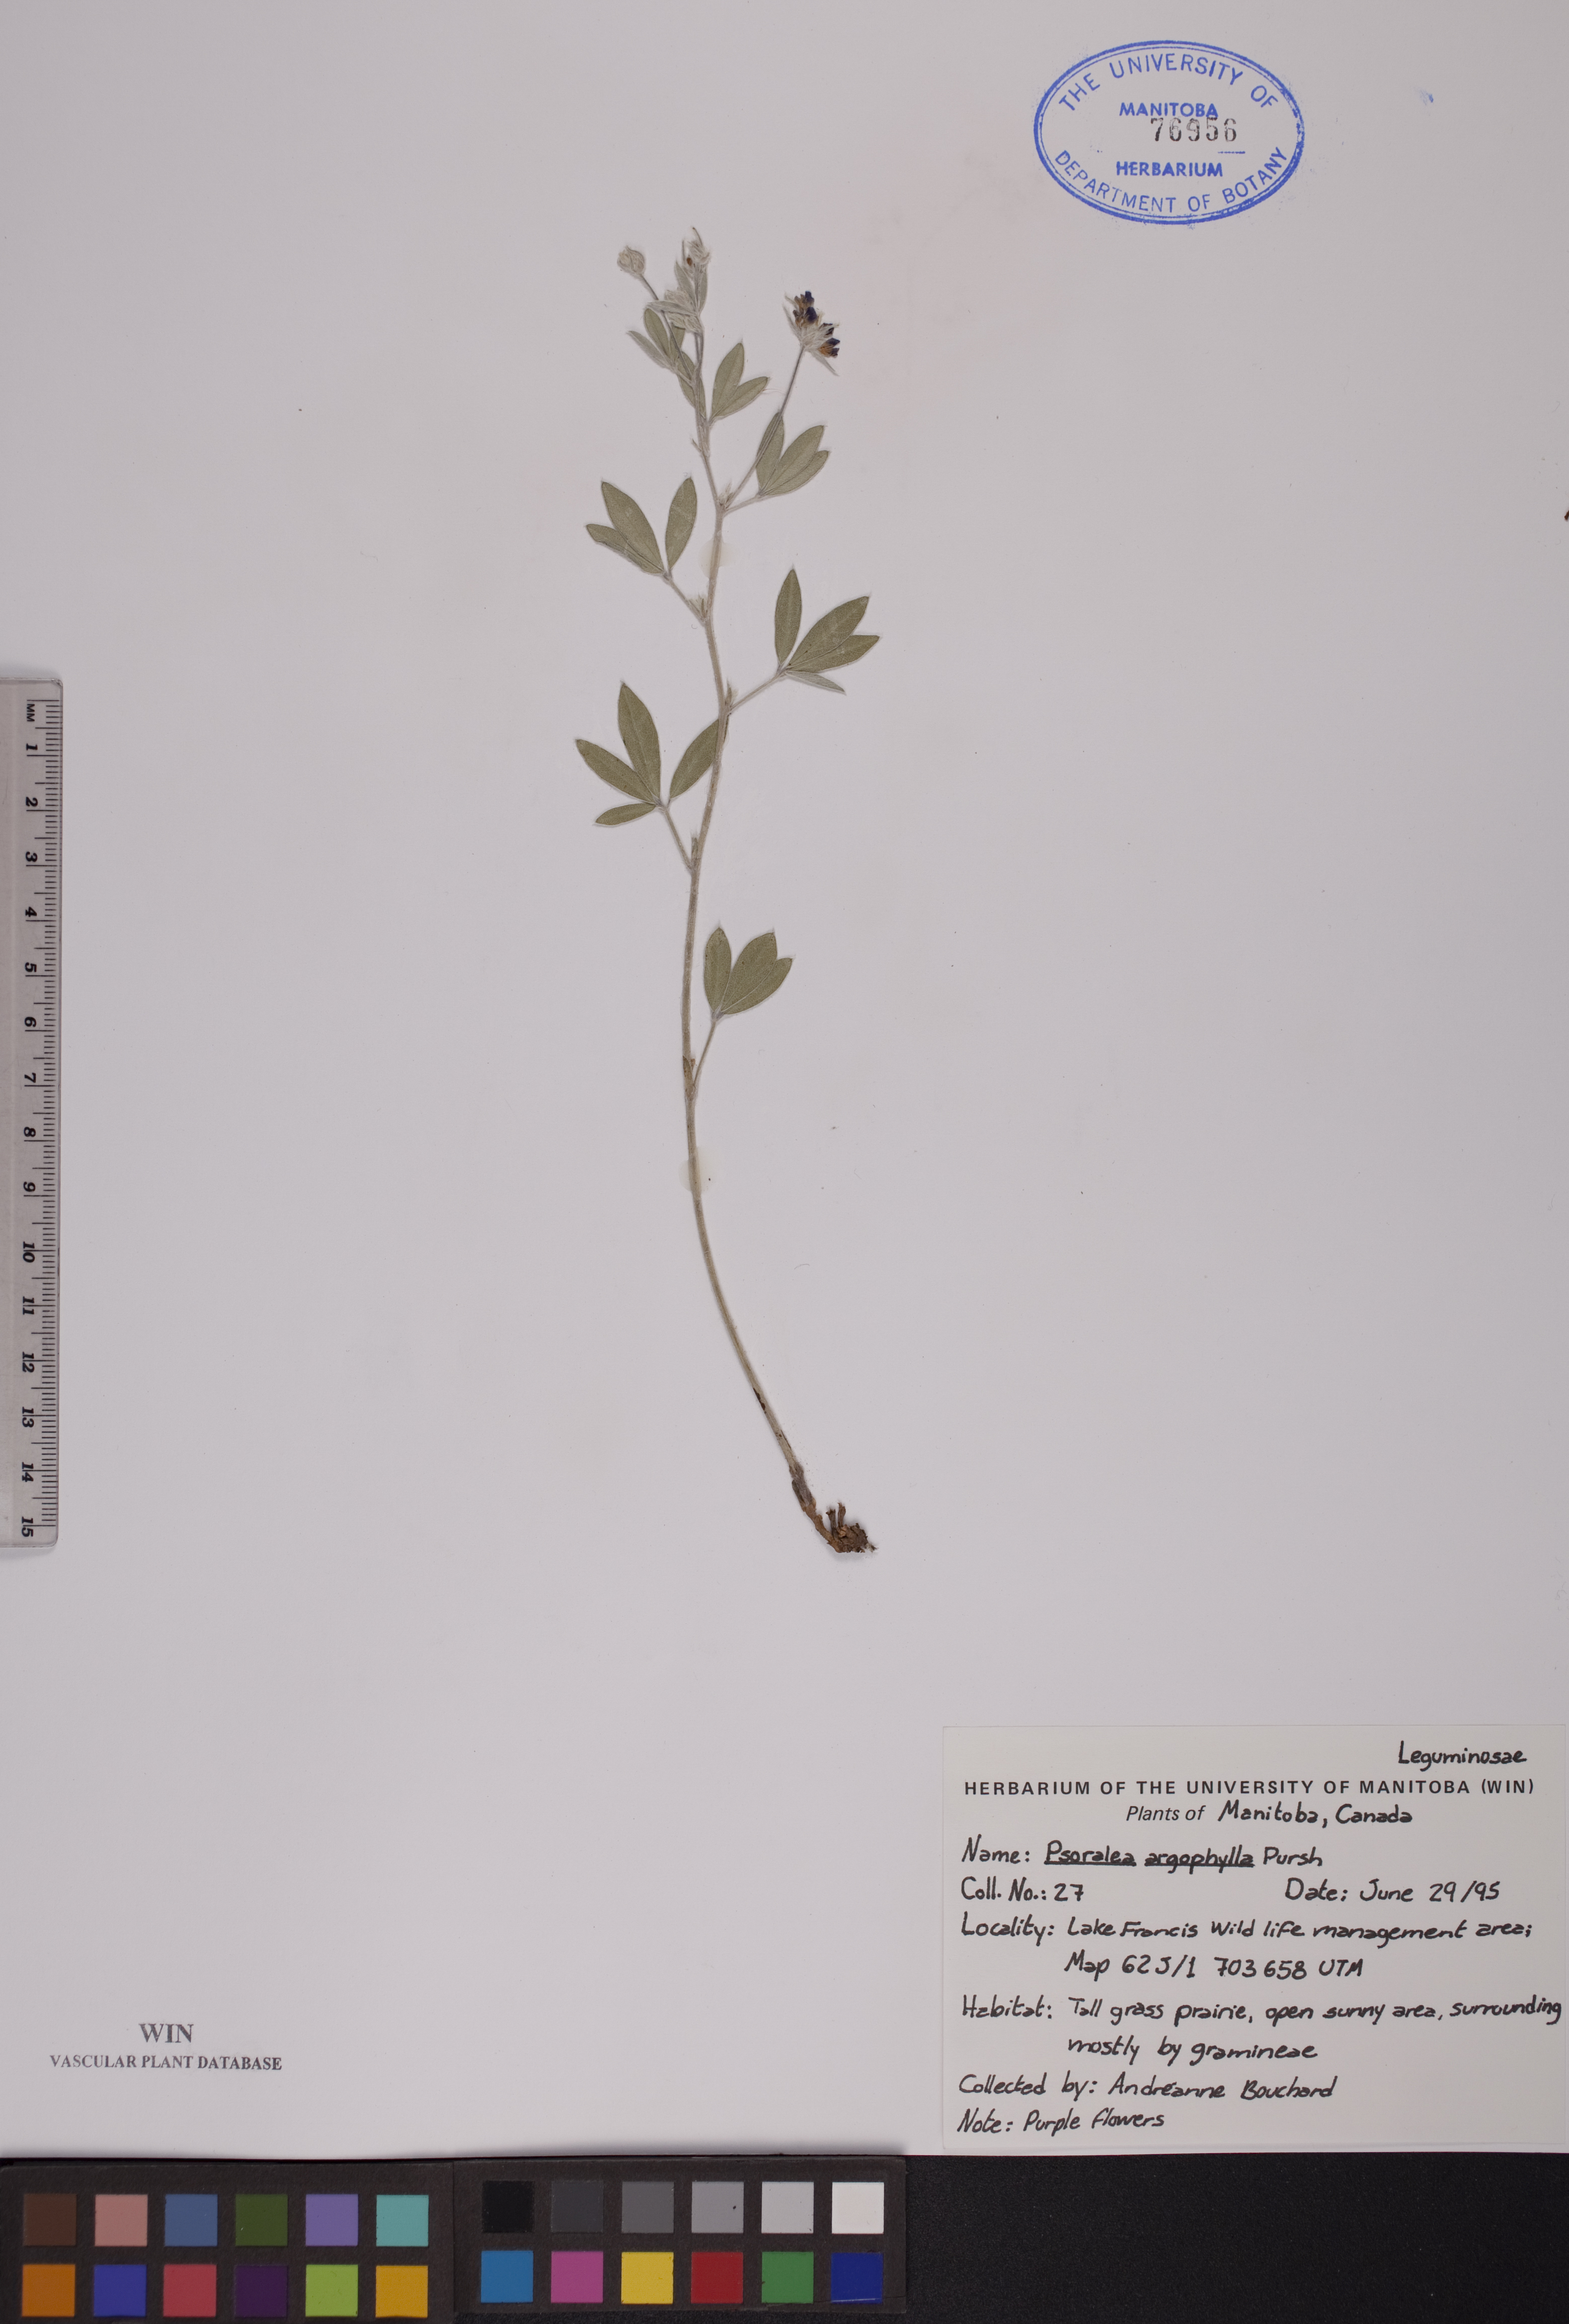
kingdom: Plantae
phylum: Tracheophyta
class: Magnoliopsida
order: Fabales
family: Fabaceae
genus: Pediomelum
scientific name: Pediomelum argophyllum
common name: Silver-leaved indian breadroot
